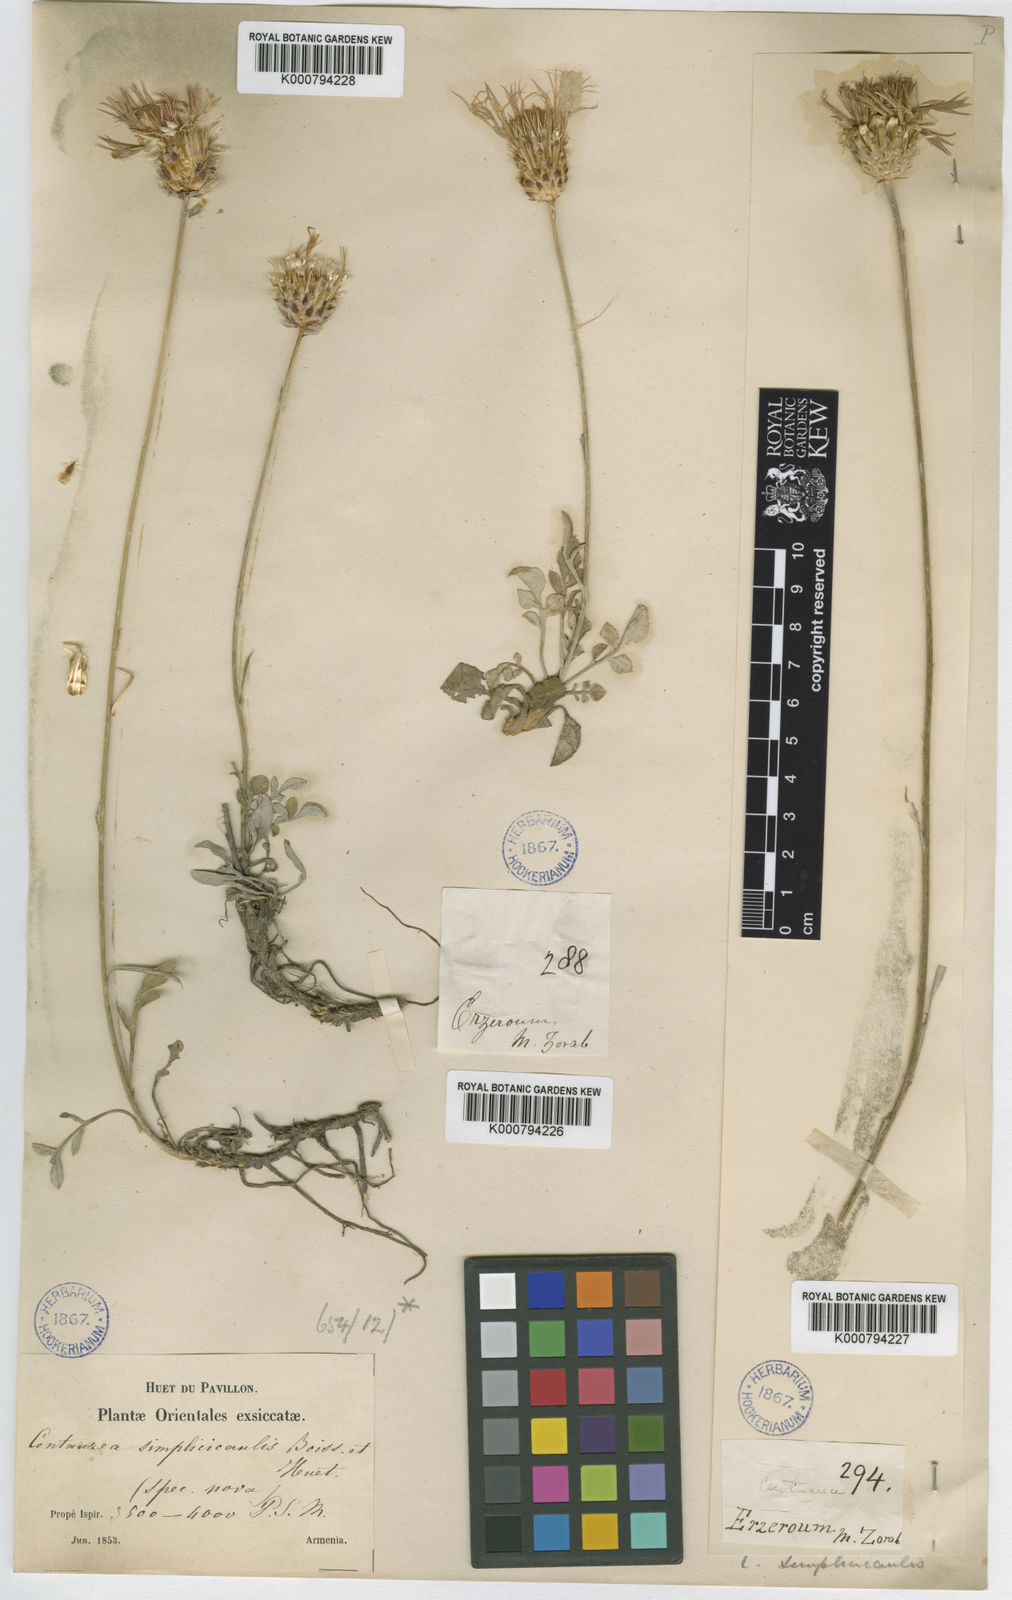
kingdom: Plantae
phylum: Tracheophyta
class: Magnoliopsida
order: Asterales
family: Asteraceae
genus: Psephellus
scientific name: Psephellus simplicicaulis
